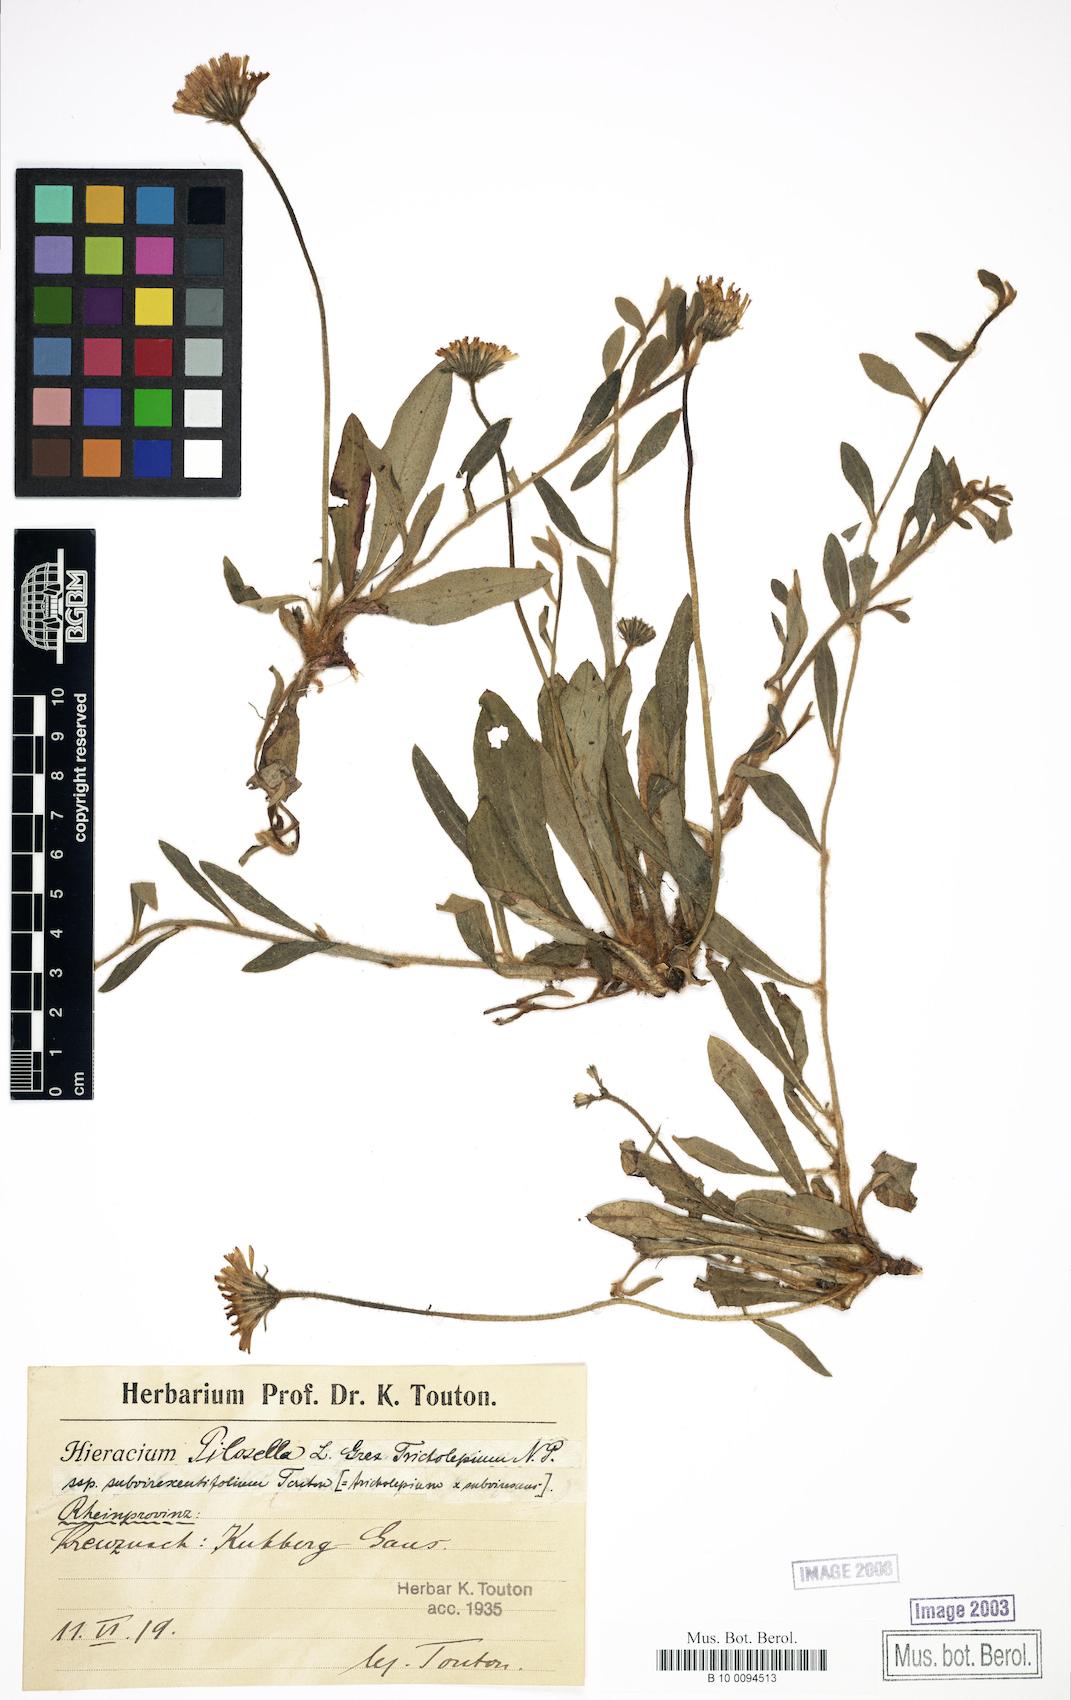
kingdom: Plantae
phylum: Tracheophyta
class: Magnoliopsida
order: Asterales
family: Asteraceae
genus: Pilosella
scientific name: Pilosella officinarum
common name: Mouse-ear hawkweed
